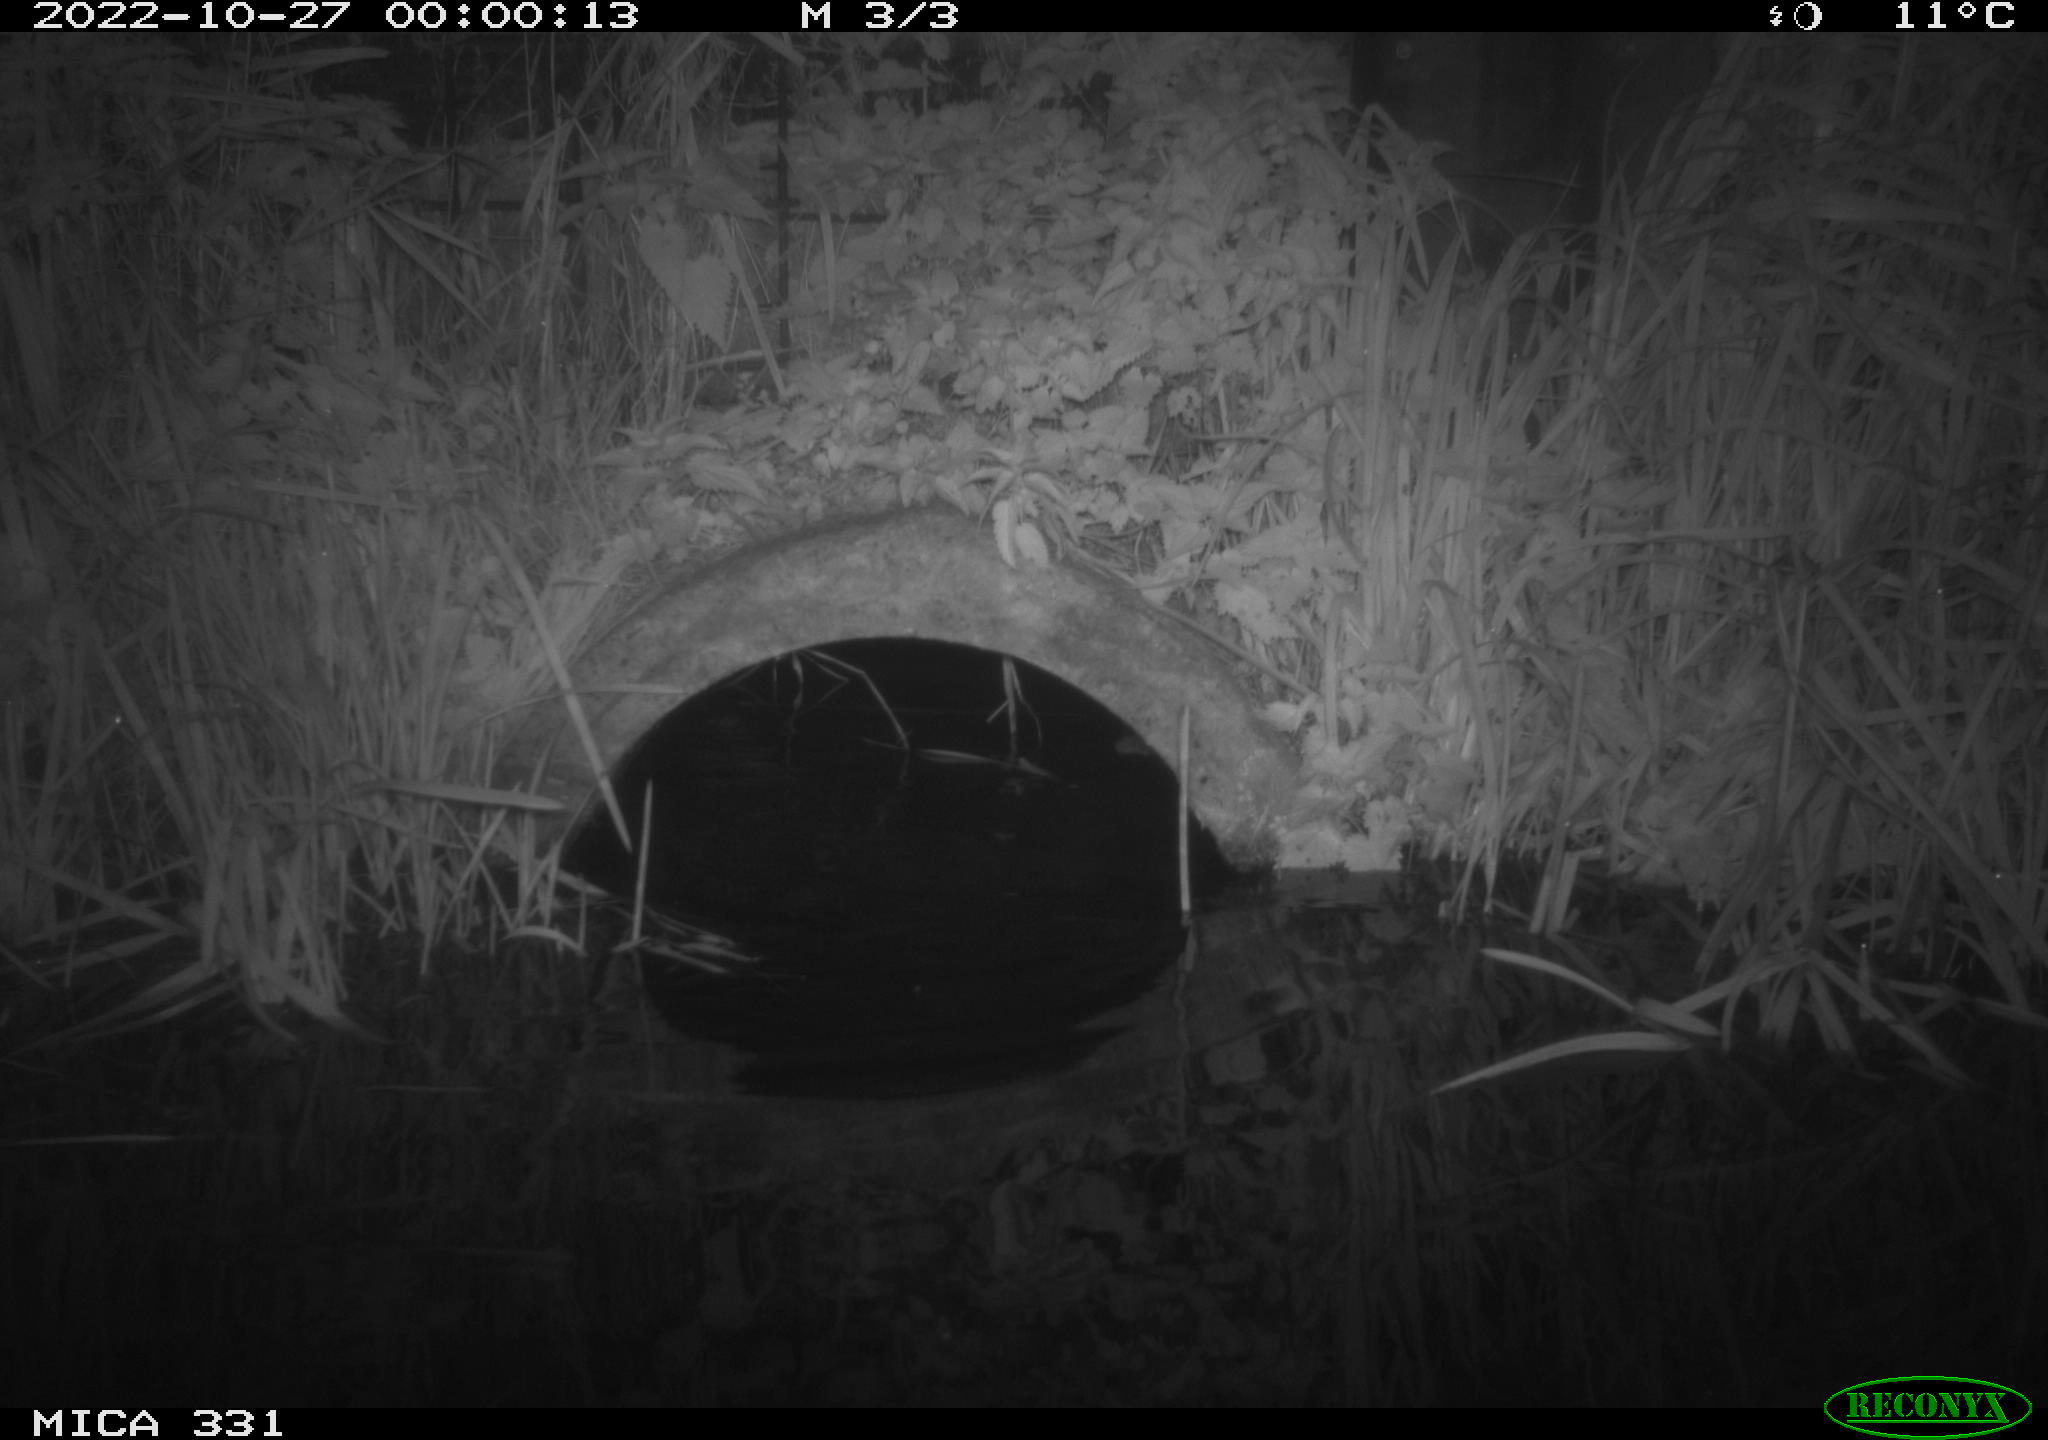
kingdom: Animalia
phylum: Chordata
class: Mammalia
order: Rodentia
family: Muridae
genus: Rattus
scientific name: Rattus norvegicus
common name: Brown rat
